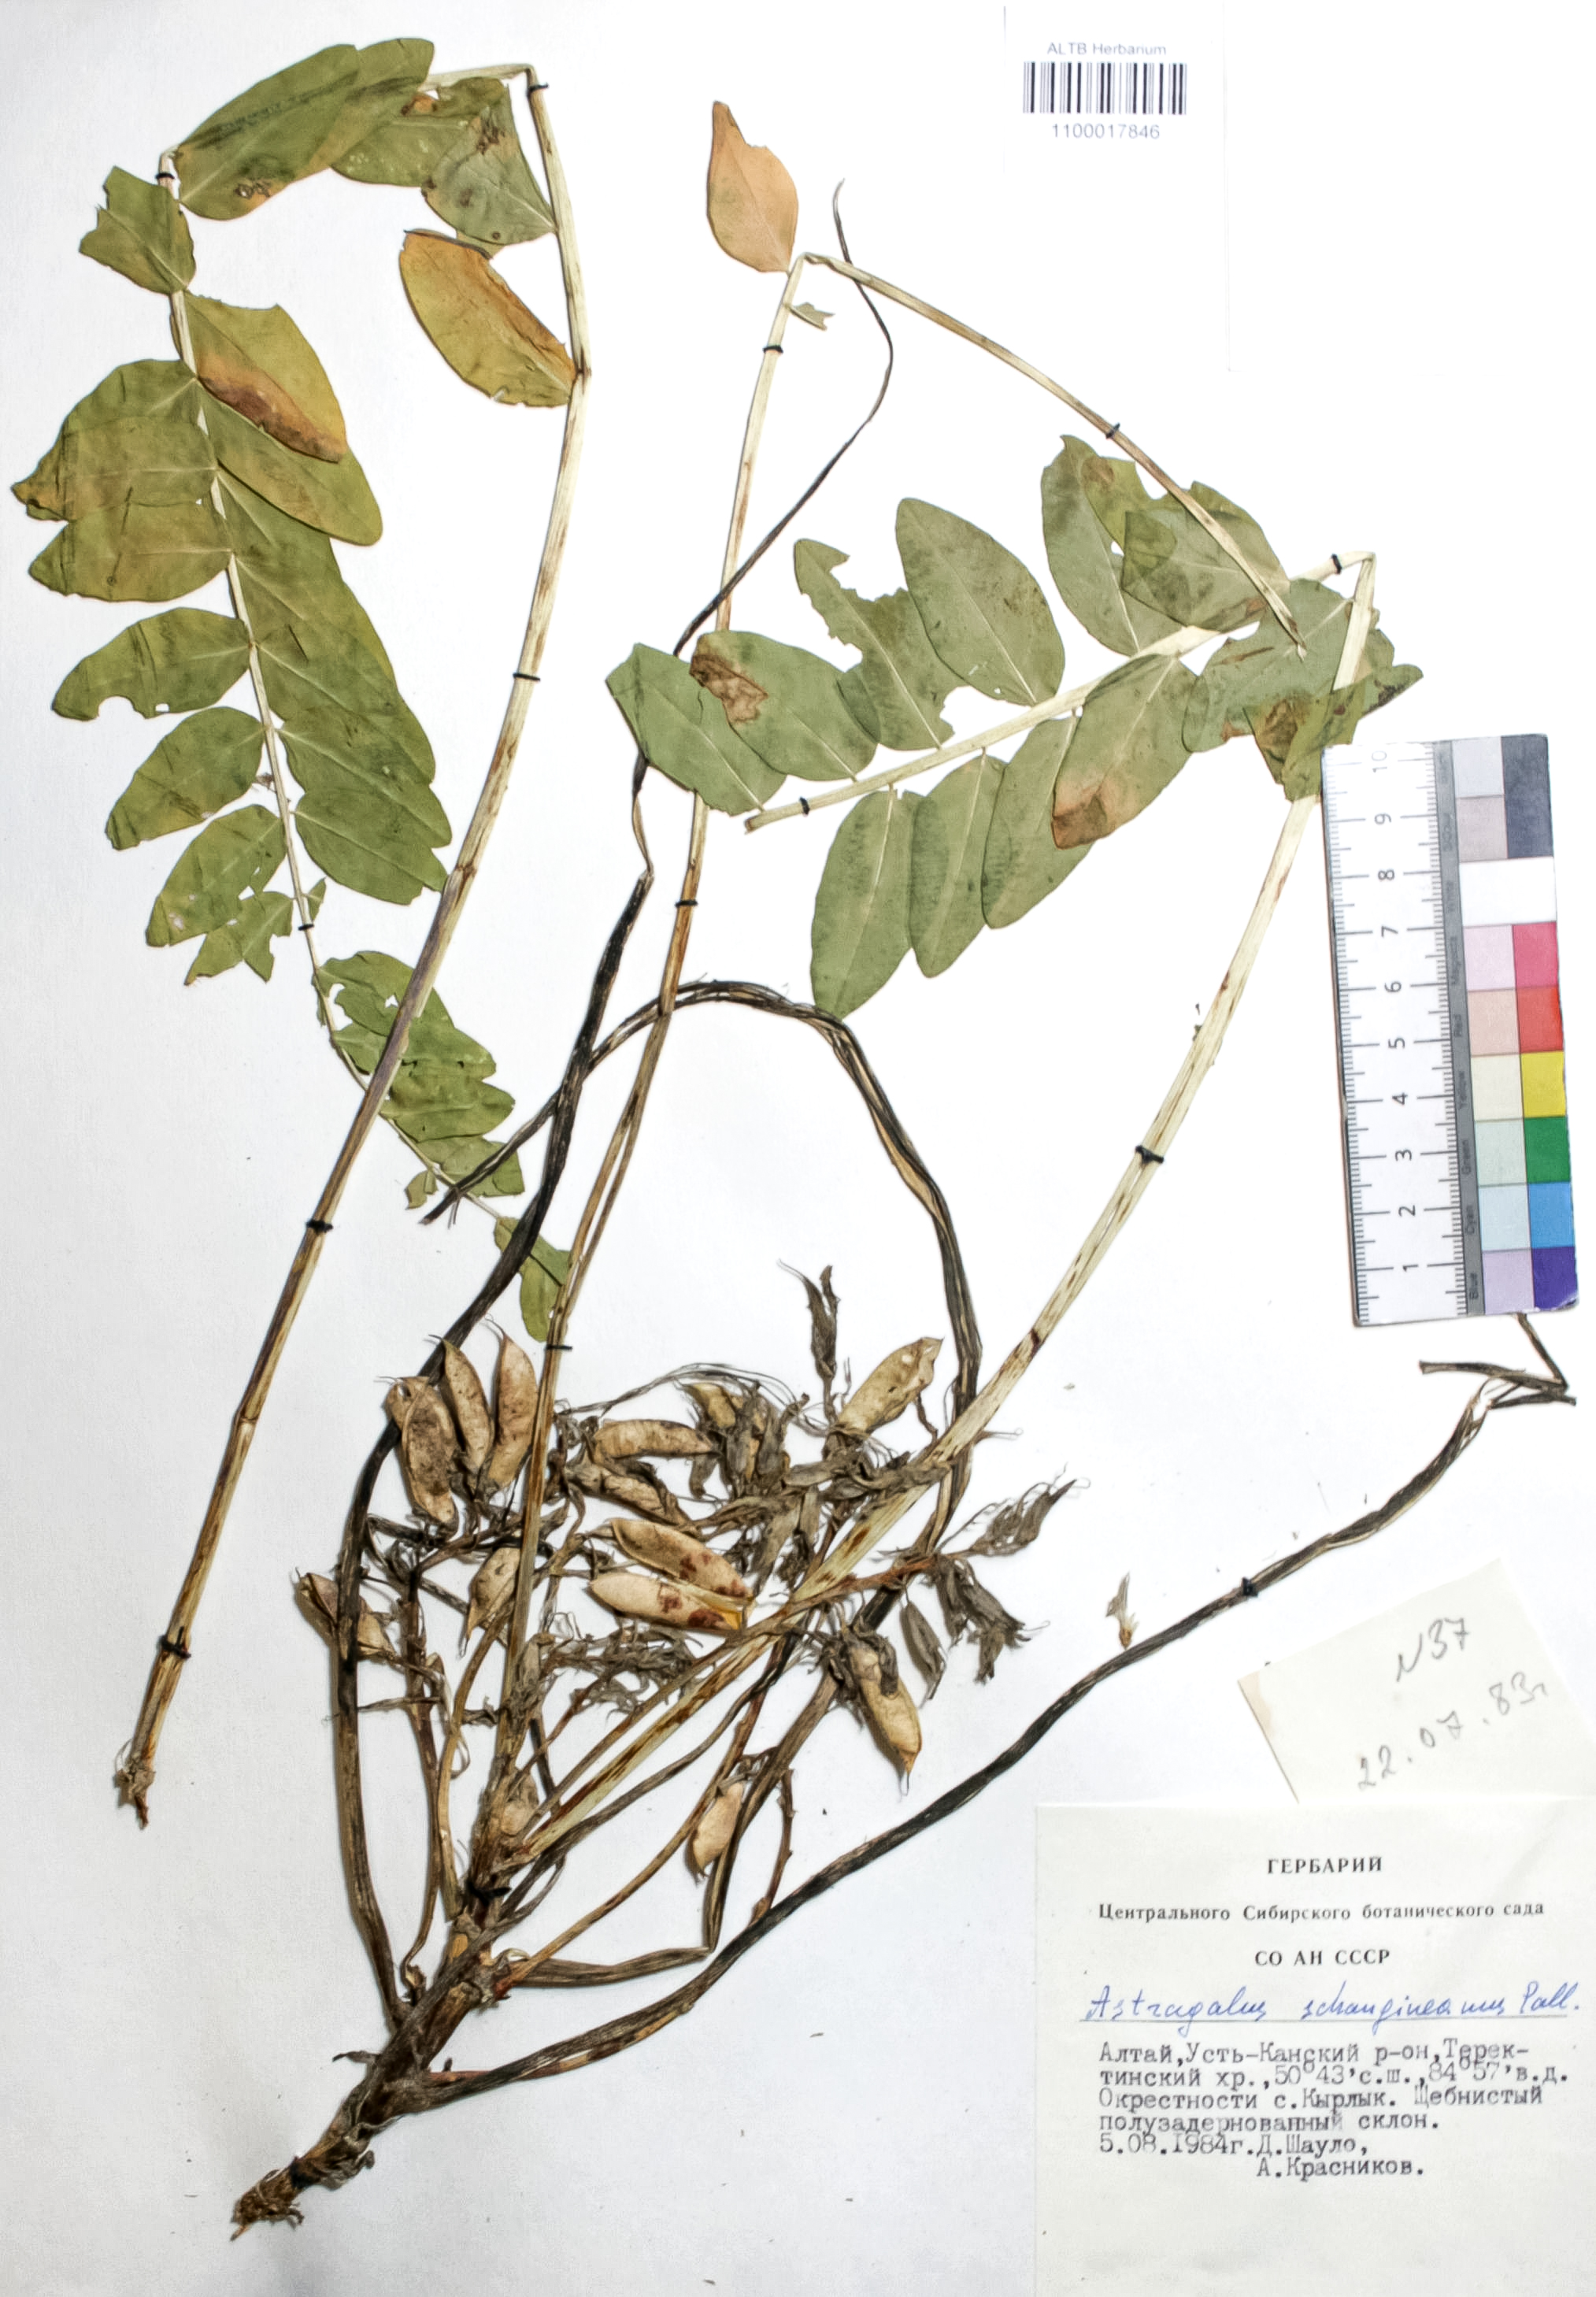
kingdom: Plantae
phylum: Tracheophyta
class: Magnoliopsida
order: Fabales
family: Fabaceae
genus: Astragalus
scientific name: Astragalus schanginianus
